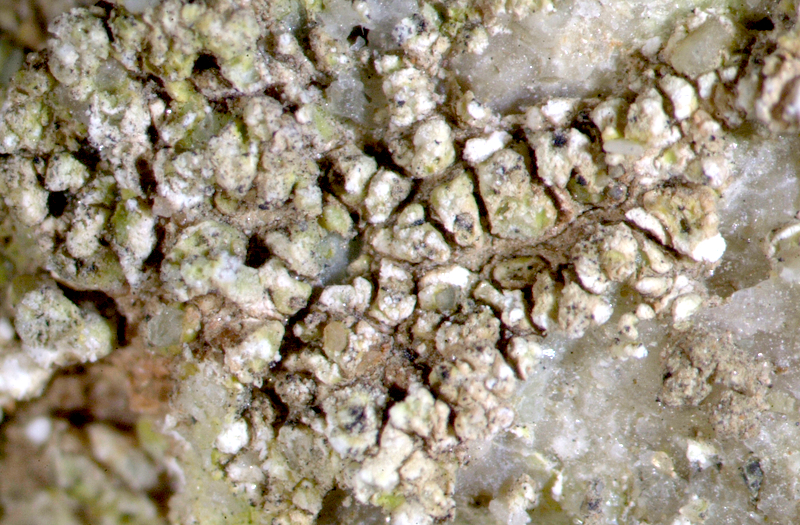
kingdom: Fungi
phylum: Ascomycota
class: Lecanoromycetes
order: Acarosporales
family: Acarosporaceae
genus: Acarospora
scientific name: Acarospora schleicheri
